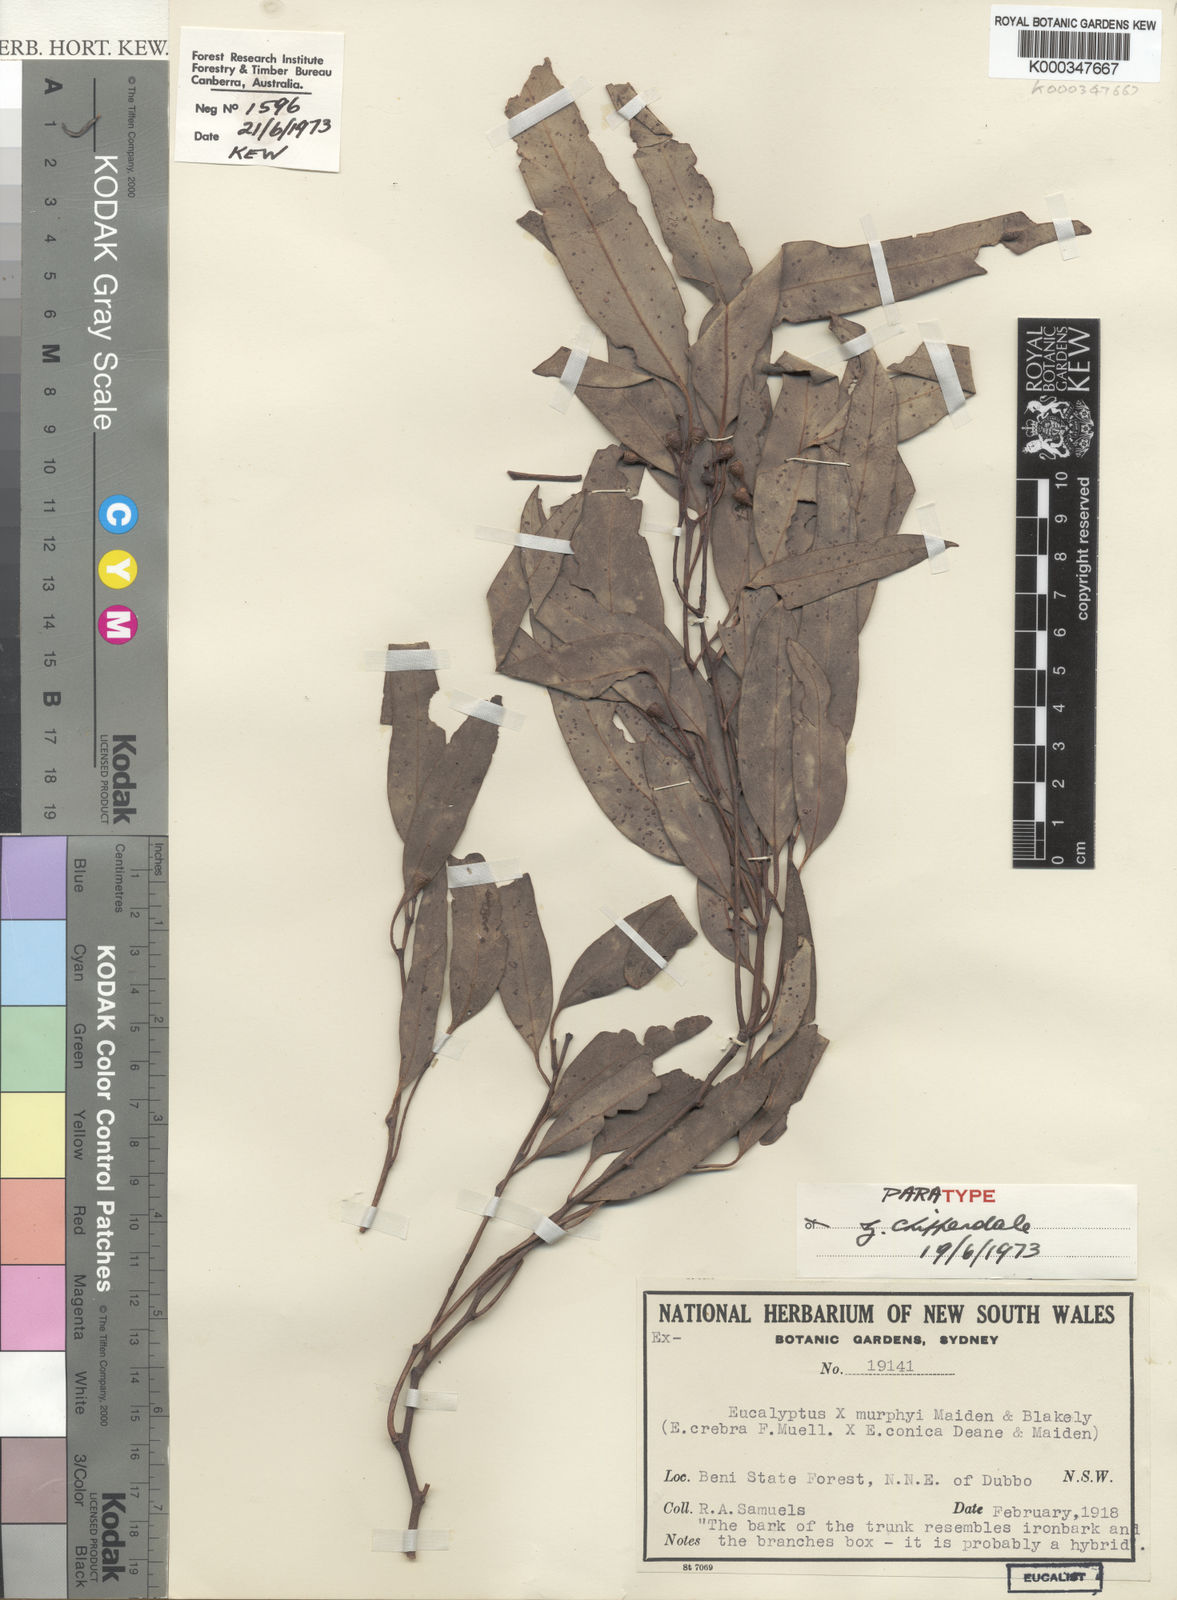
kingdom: Plantae
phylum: Tracheophyta
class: Magnoliopsida
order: Myrtales
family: Myrtaceae
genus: Eucalyptus
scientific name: Eucalyptus murphyi
